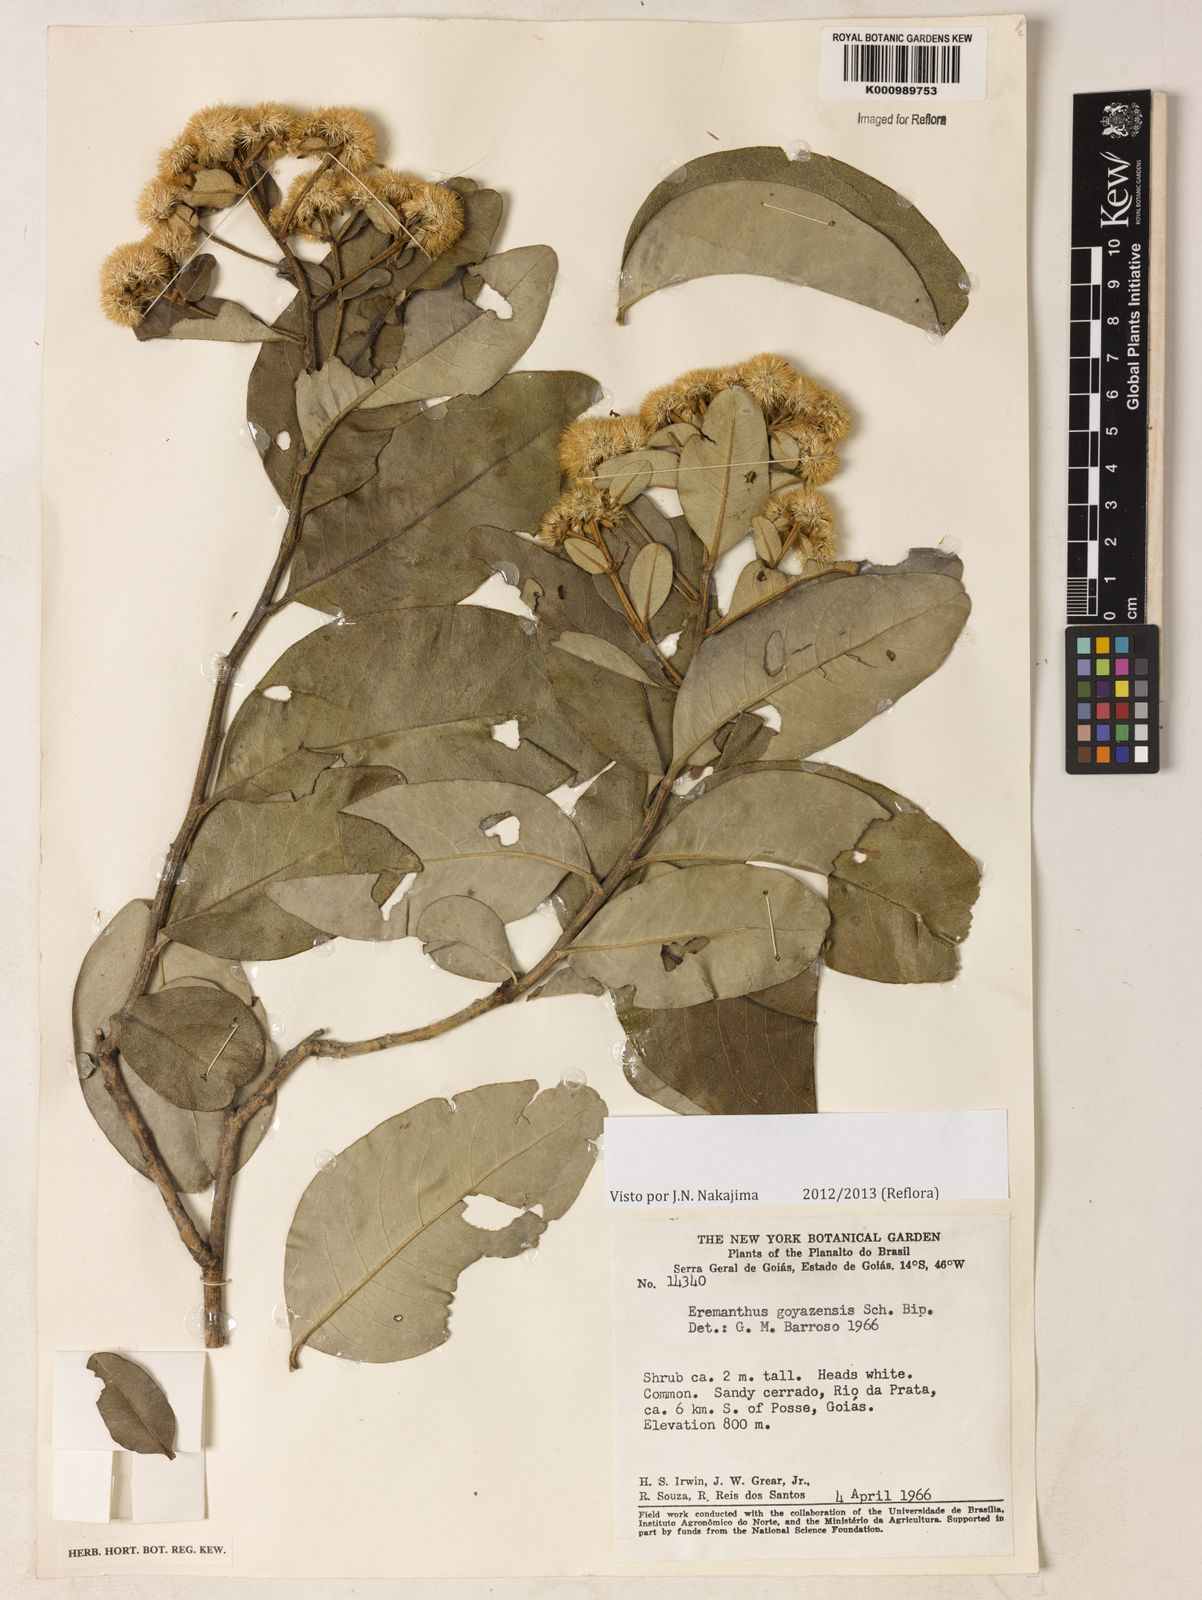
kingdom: Plantae
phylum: Tracheophyta
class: Magnoliopsida
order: Asterales
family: Asteraceae
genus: Eremanthus
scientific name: Eremanthus goyazensis
